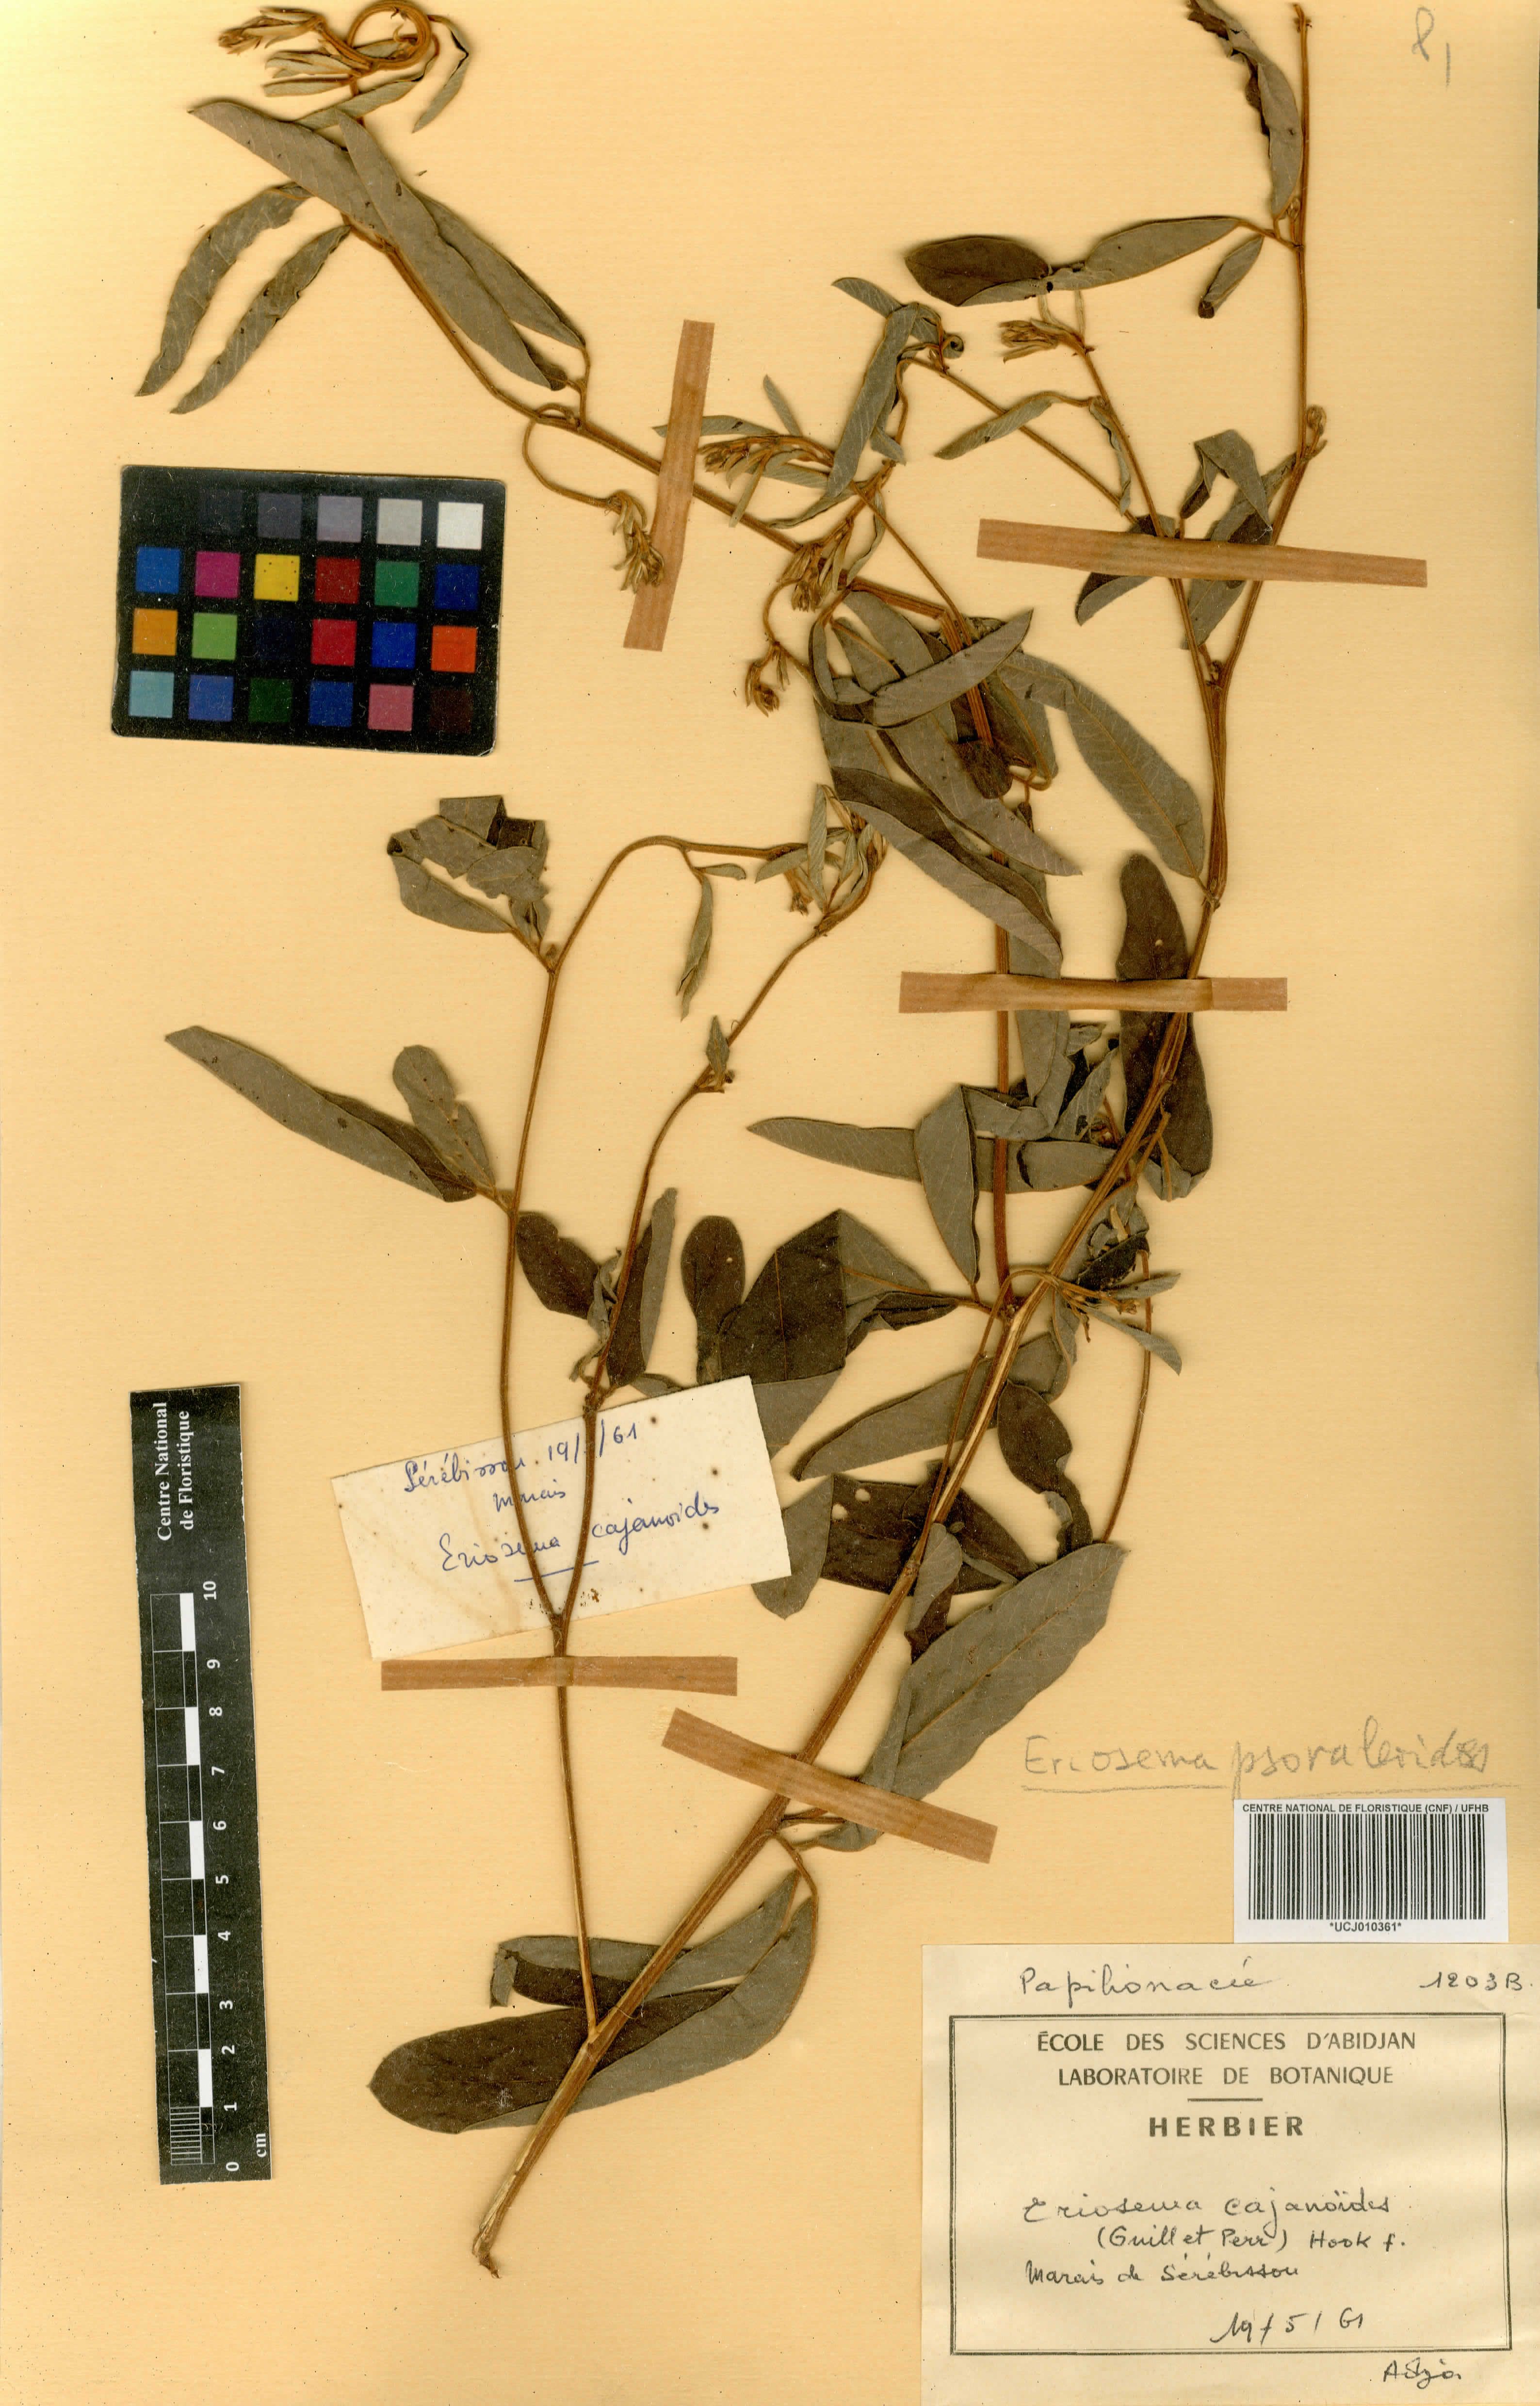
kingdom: Plantae
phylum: Tracheophyta
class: Magnoliopsida
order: Fabales
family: Fabaceae
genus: Eriosema
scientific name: Eriosema psoraleoides
